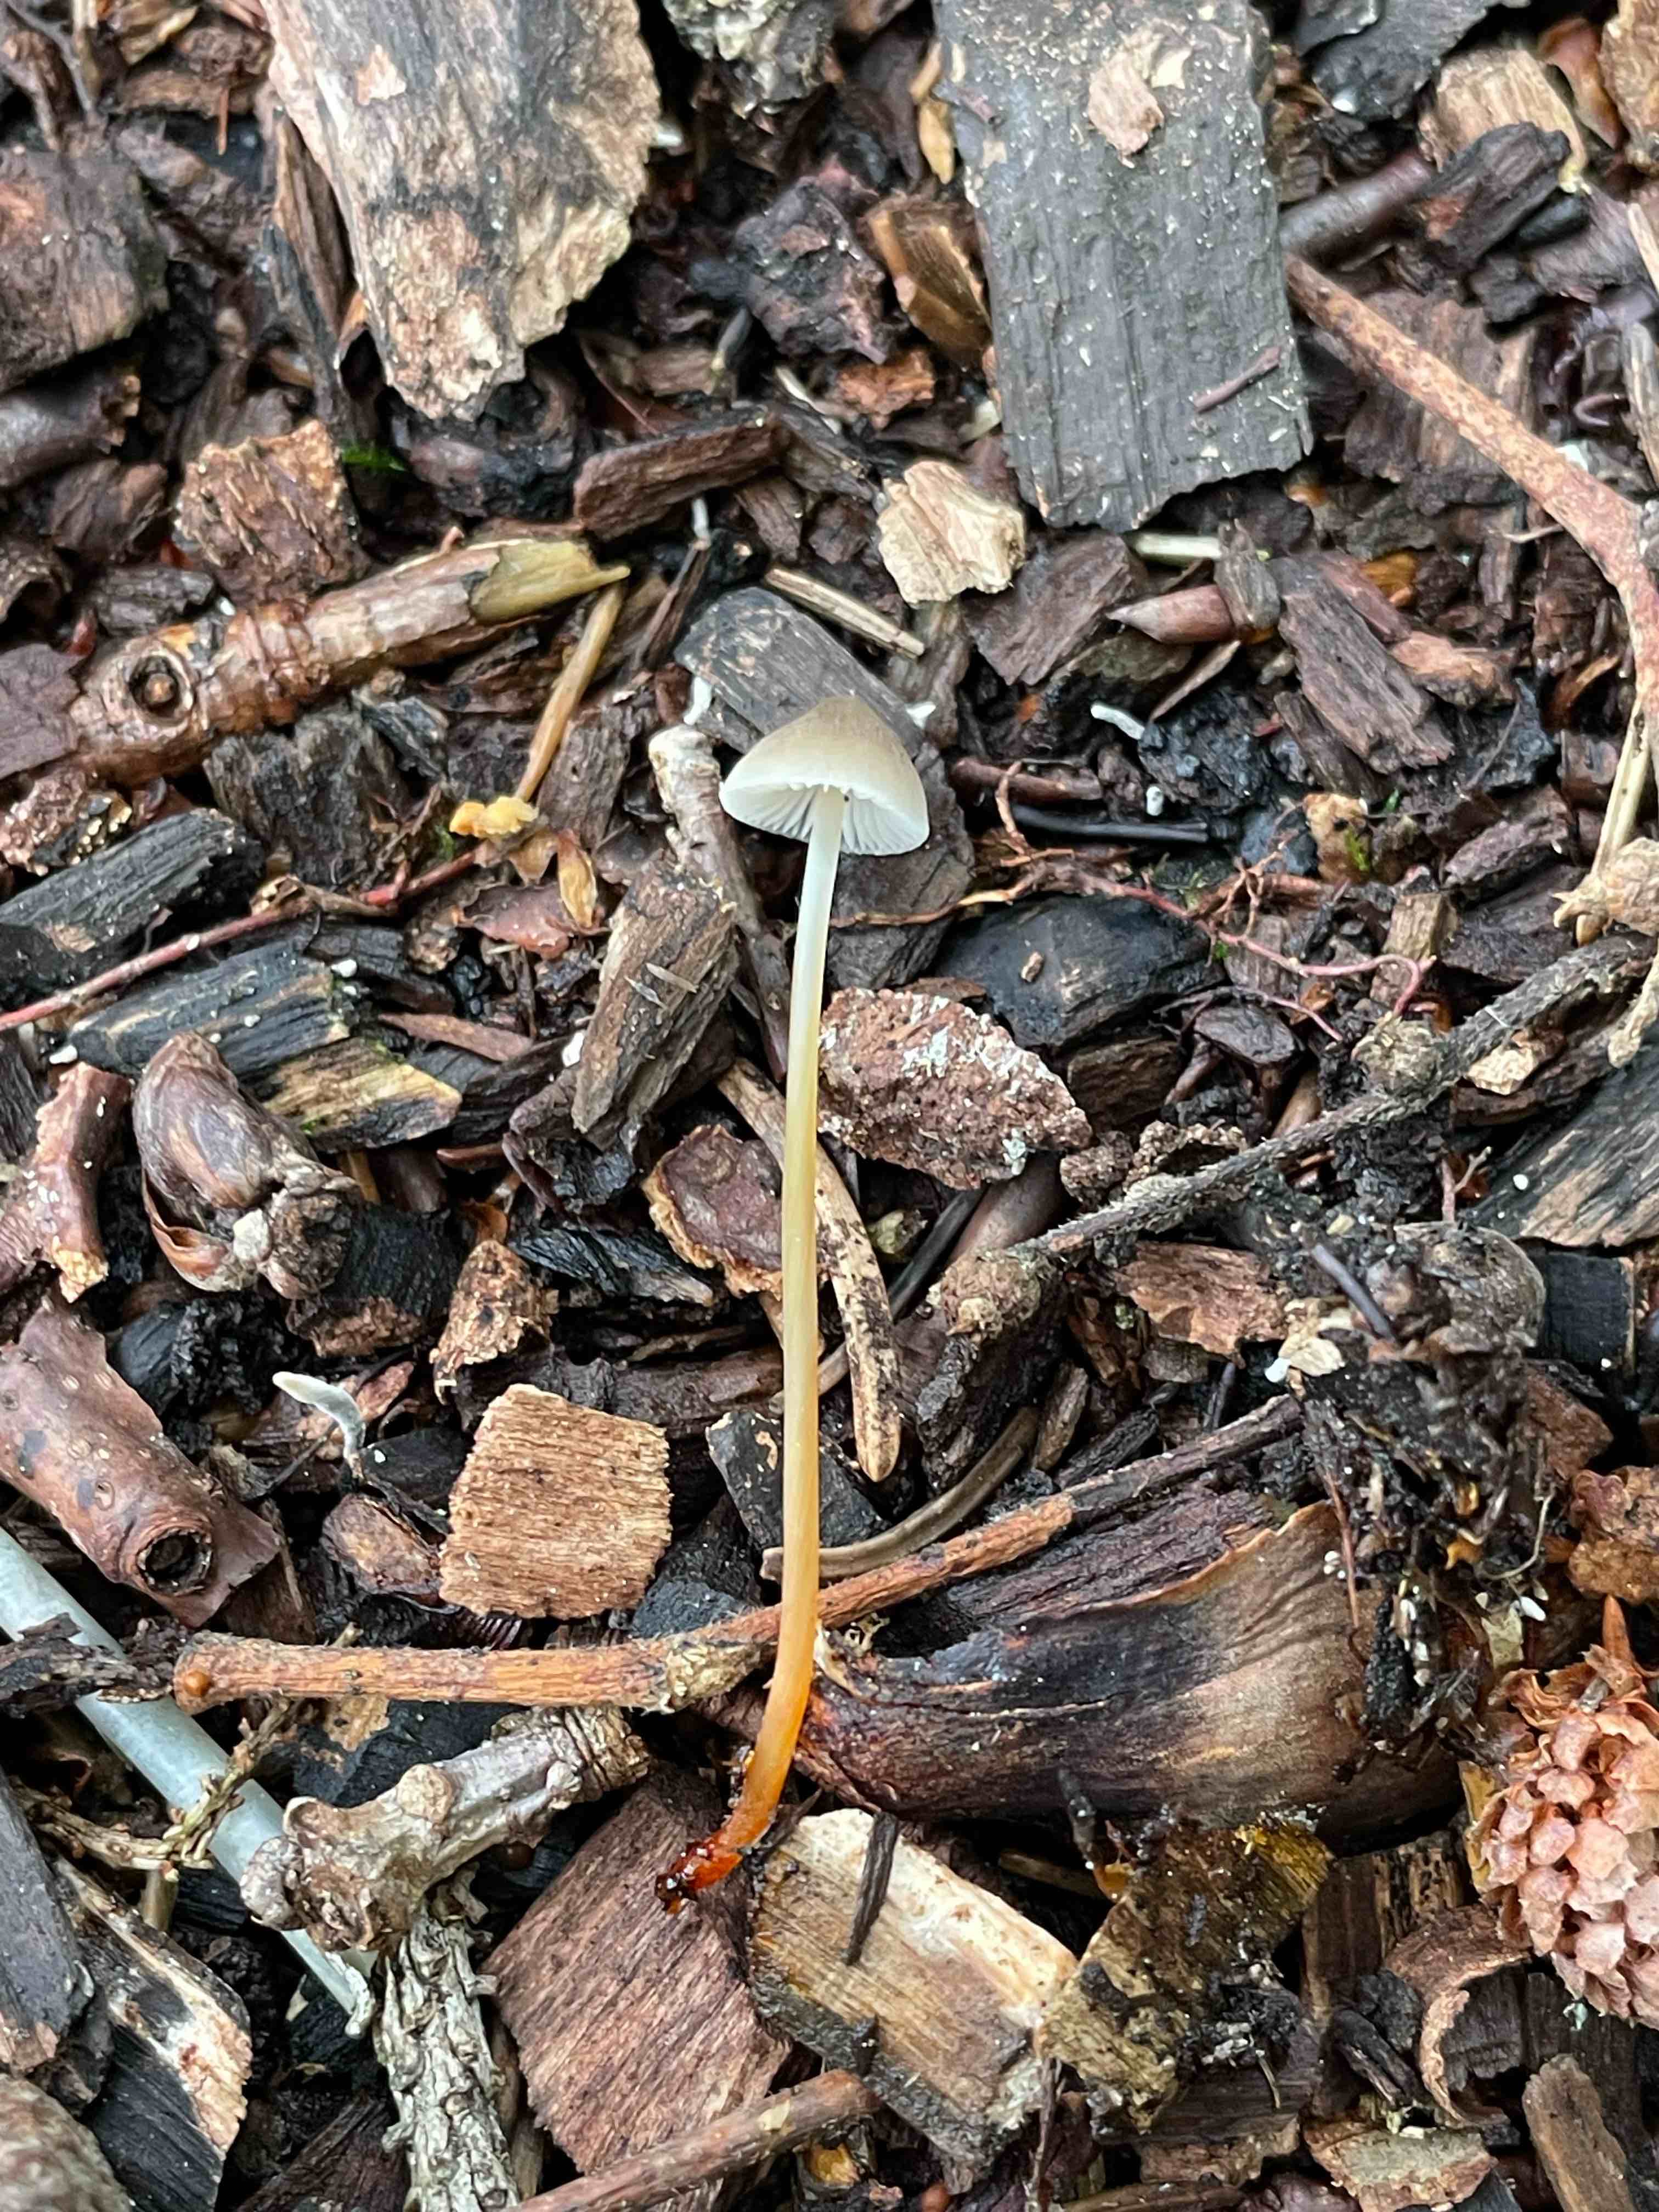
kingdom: Fungi
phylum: Basidiomycota
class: Agaricomycetes
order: Agaricales
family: Mycenaceae
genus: Mycena
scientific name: Mycena crocata
